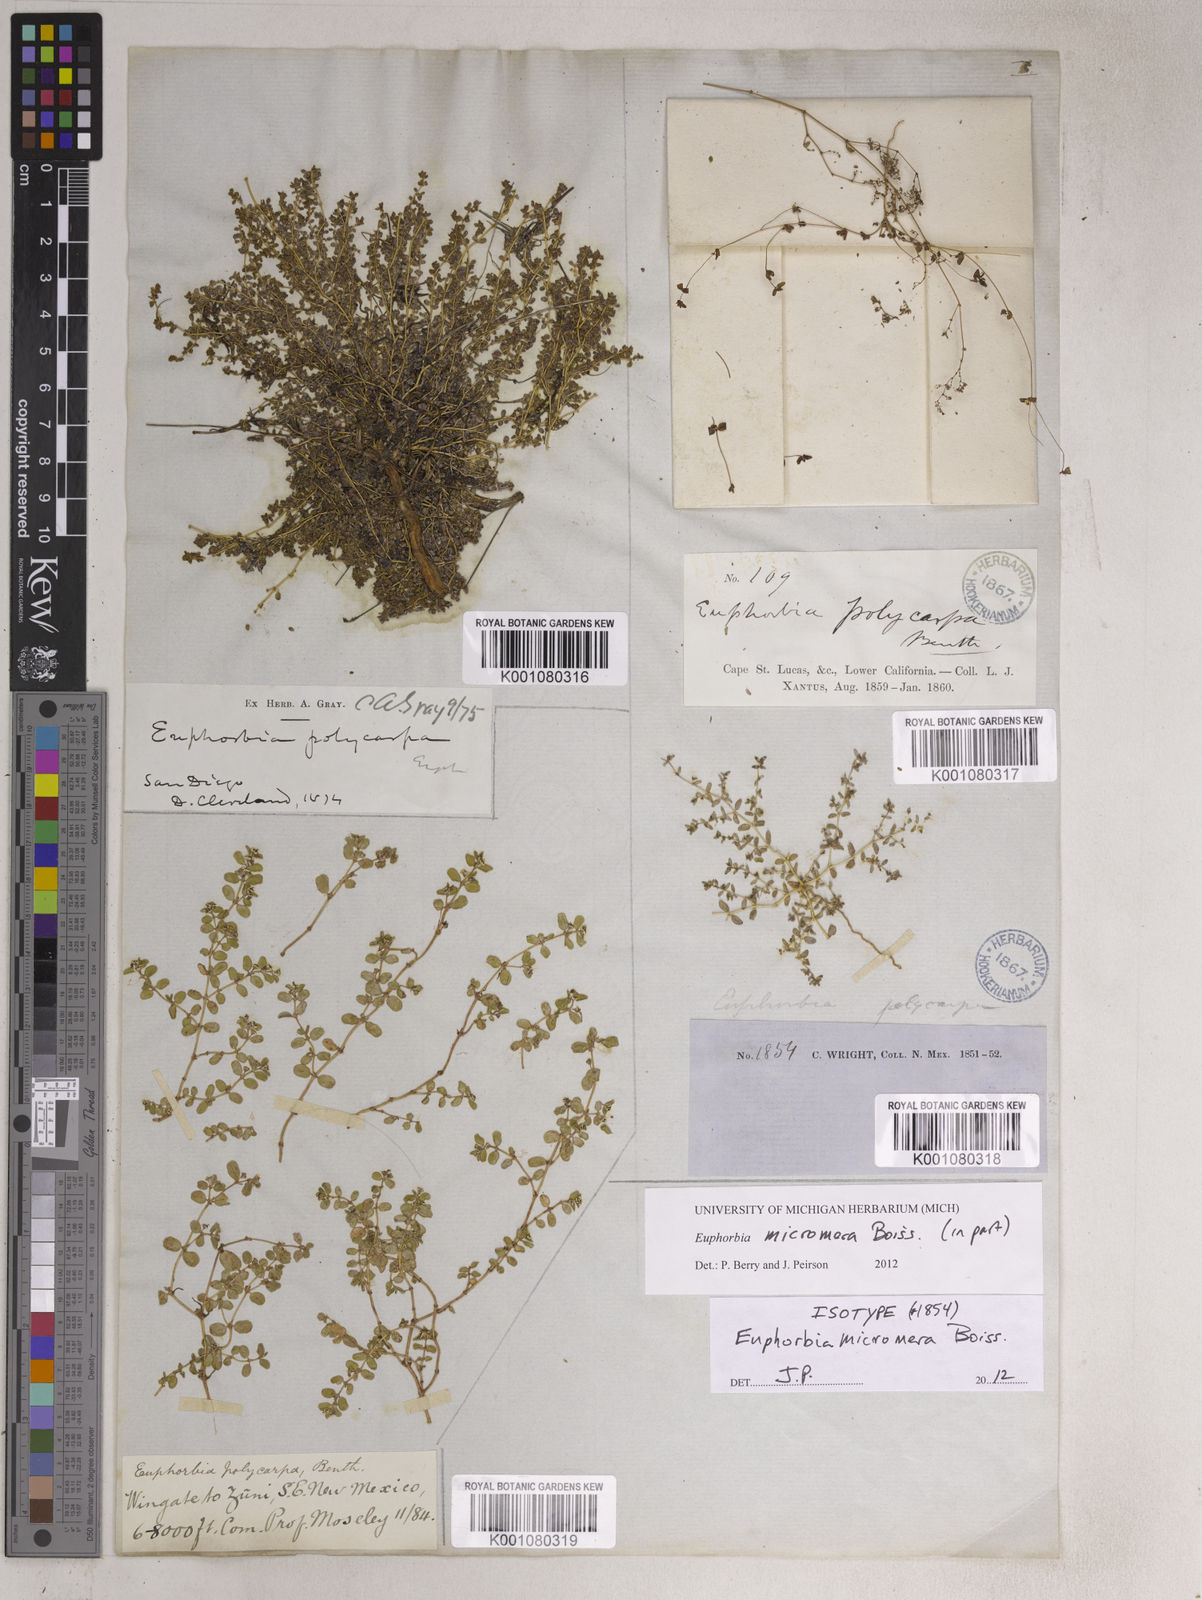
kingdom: Plantae
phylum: Tracheophyta
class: Magnoliopsida
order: Malpighiales
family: Euphorbiaceae
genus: Euphorbia
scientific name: Euphorbia micromera
